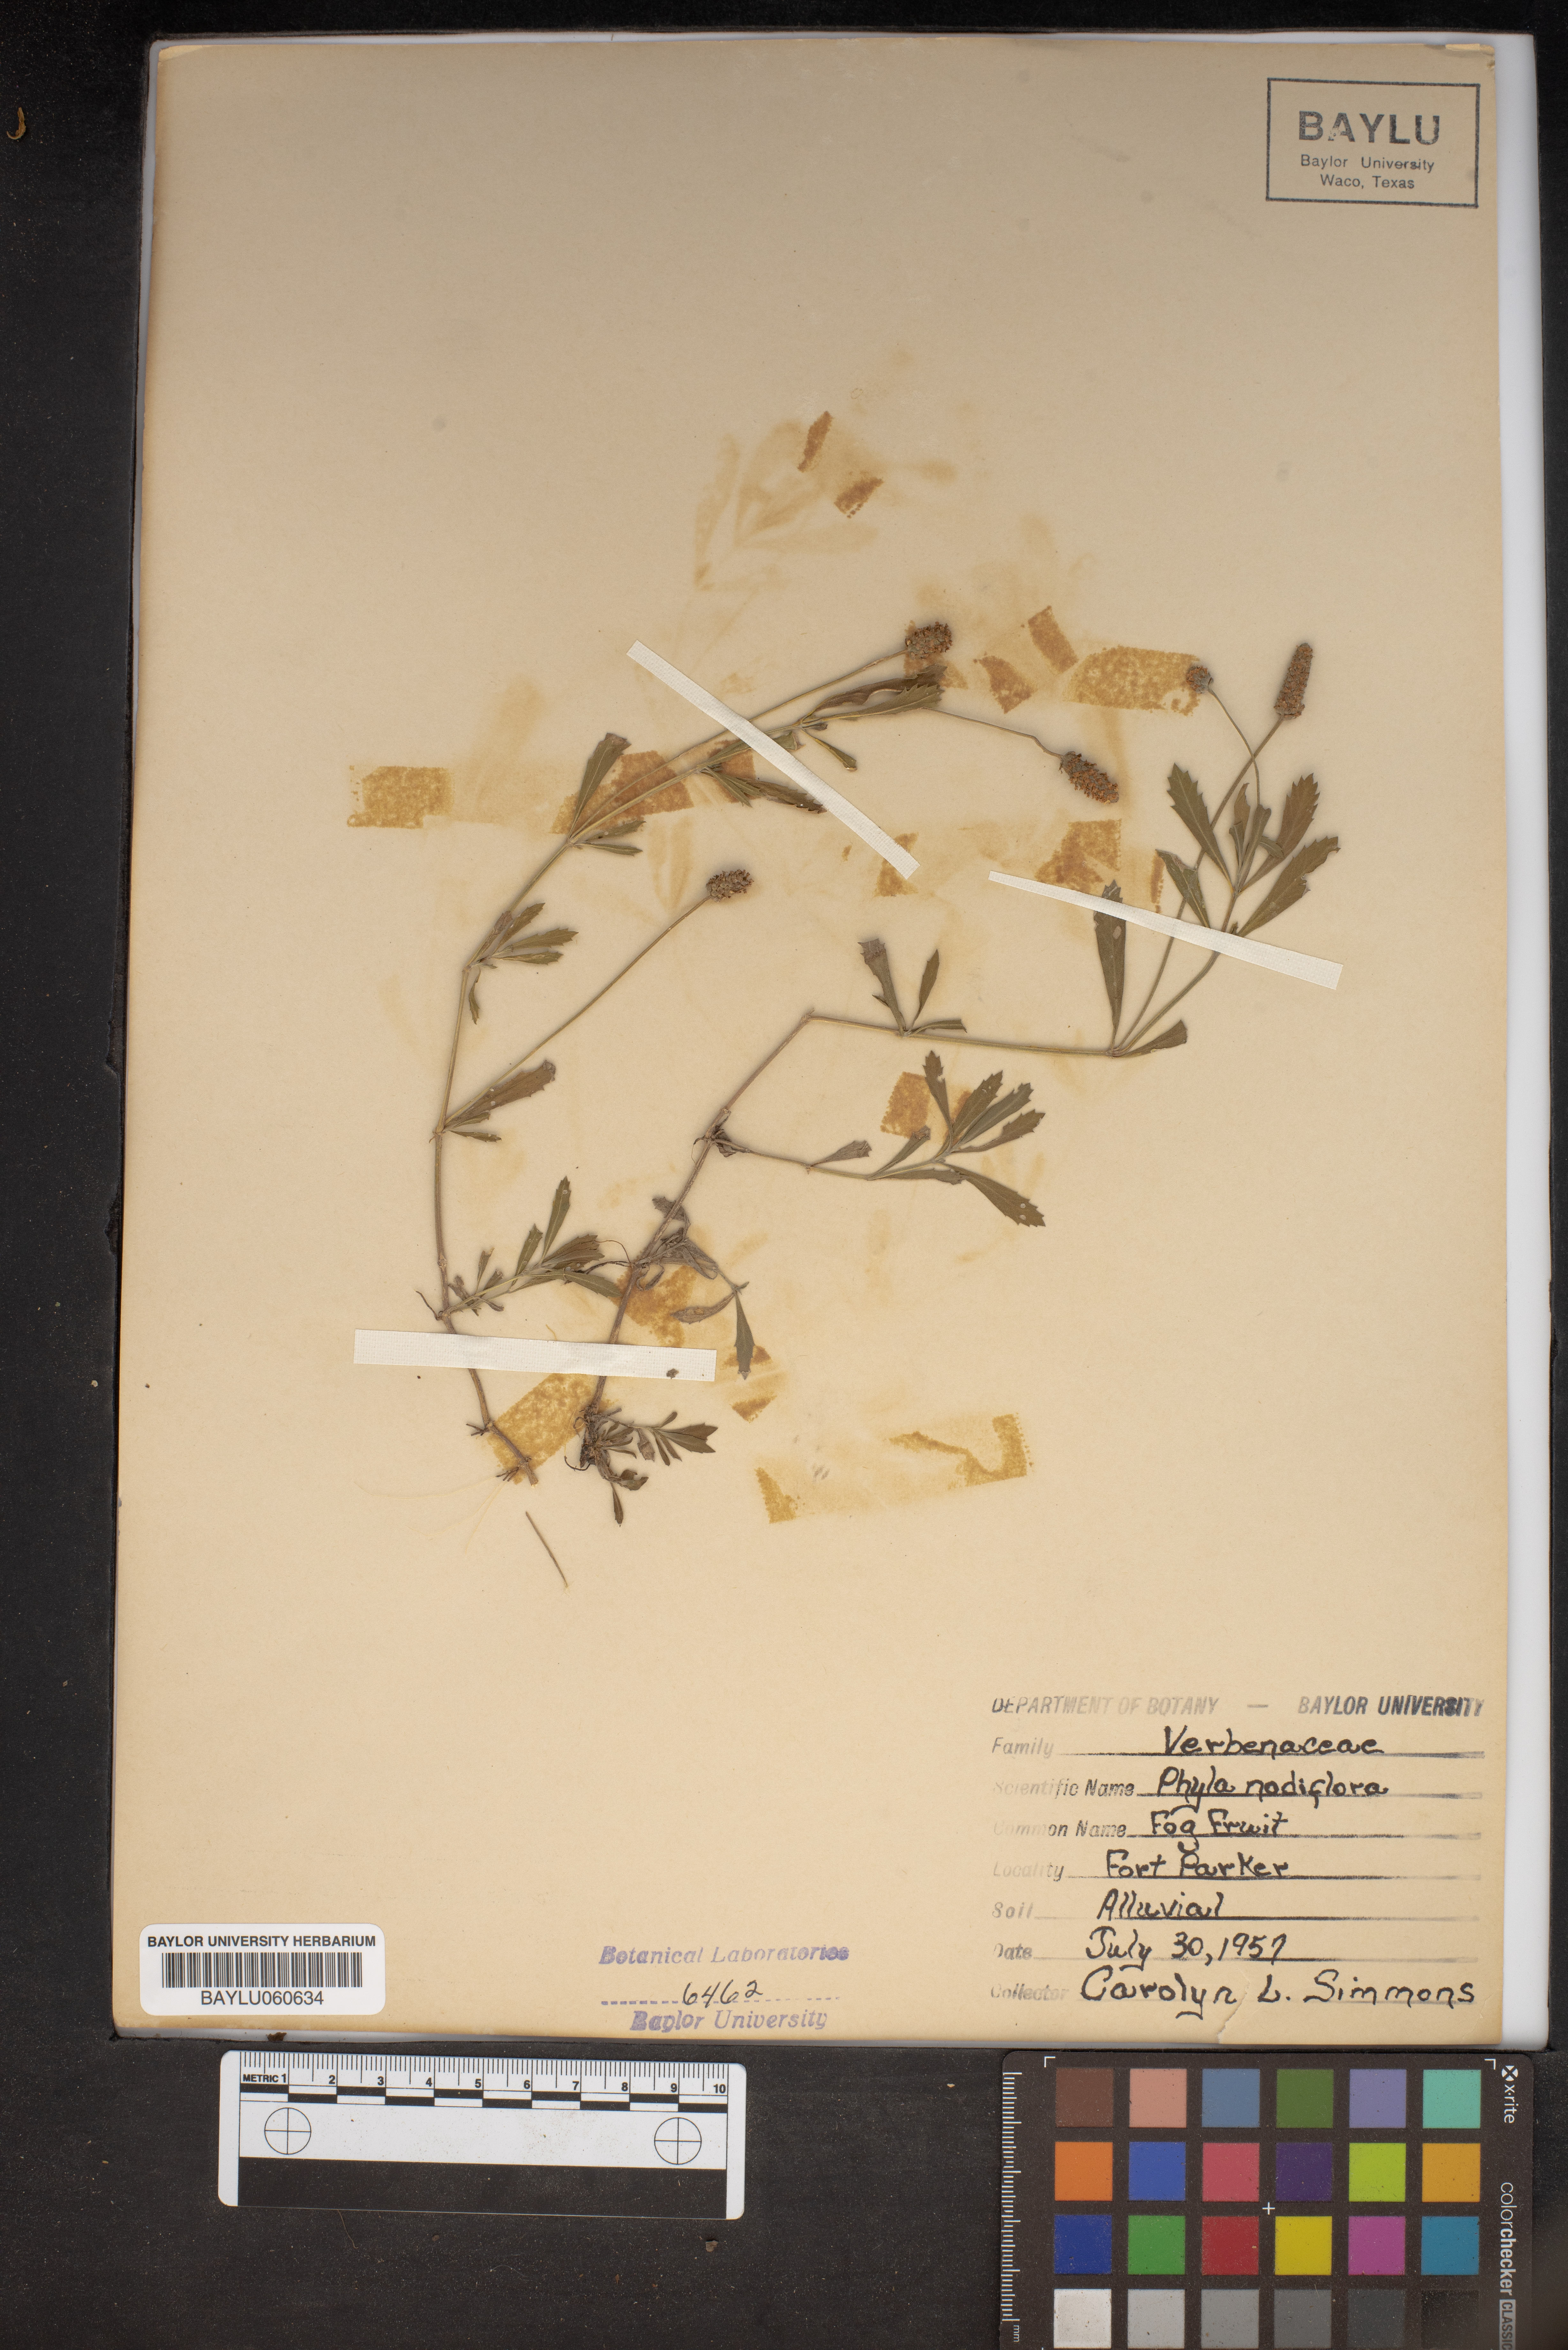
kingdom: Plantae
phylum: Tracheophyta
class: Magnoliopsida
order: Lamiales
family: Verbenaceae
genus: Phyla
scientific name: Phyla nodiflora
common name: Frogfruit
